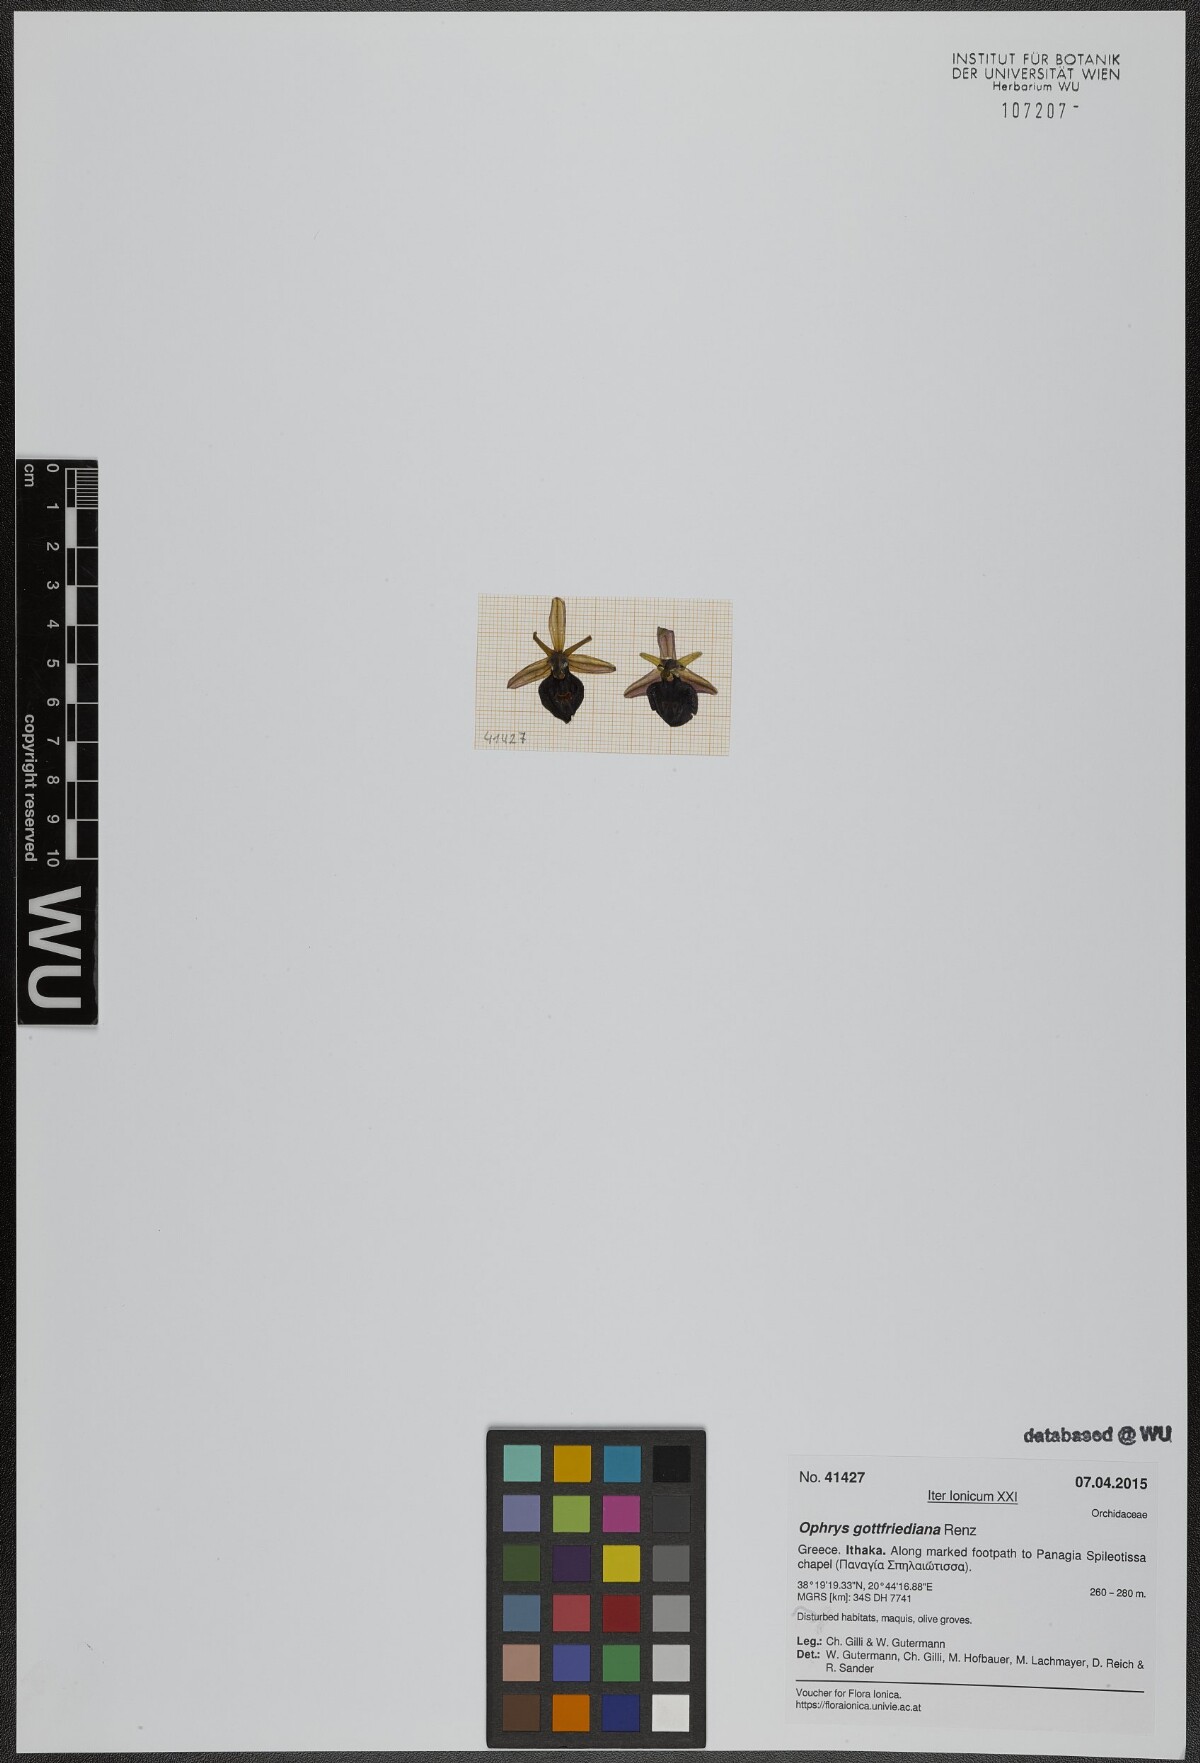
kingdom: Plantae
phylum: Tracheophyta
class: Liliopsida
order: Asparagales
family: Orchidaceae
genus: Ophrys
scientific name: Ophrys ferrum-equinum
